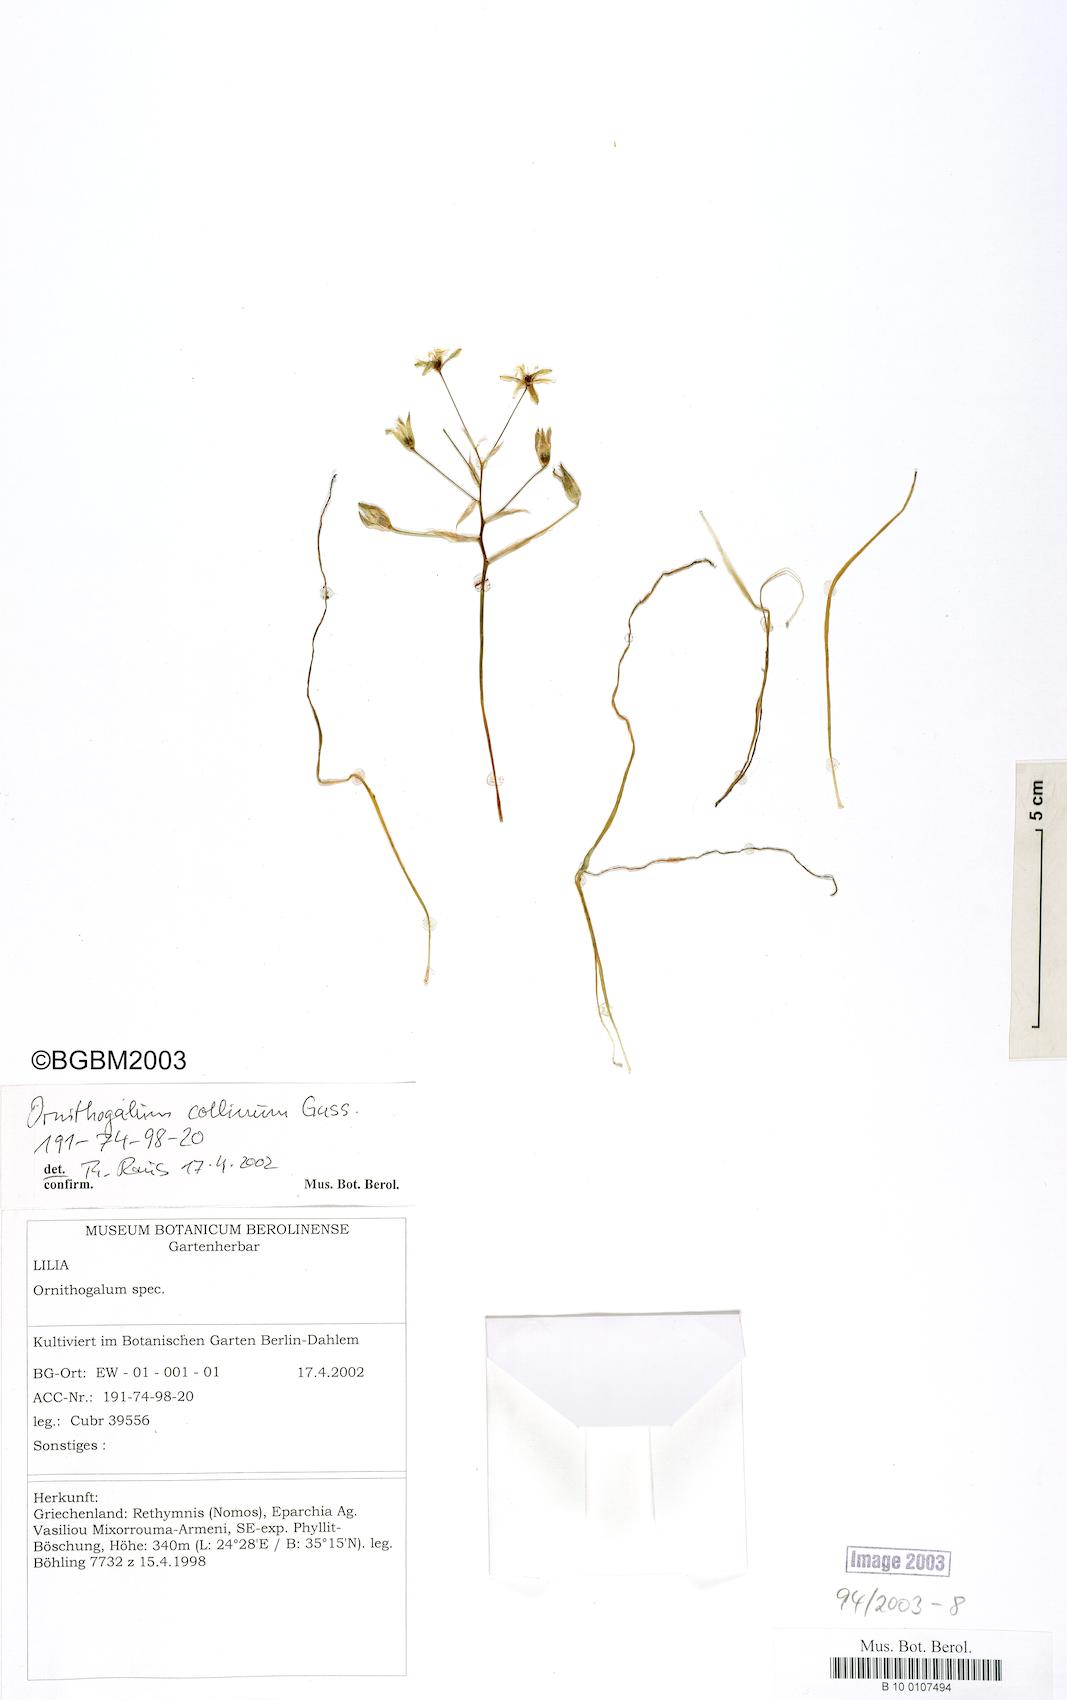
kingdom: Plantae
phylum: Tracheophyta
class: Liliopsida
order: Asparagales
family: Asparagaceae
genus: Ornithogalum
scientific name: Ornithogalum collinum
